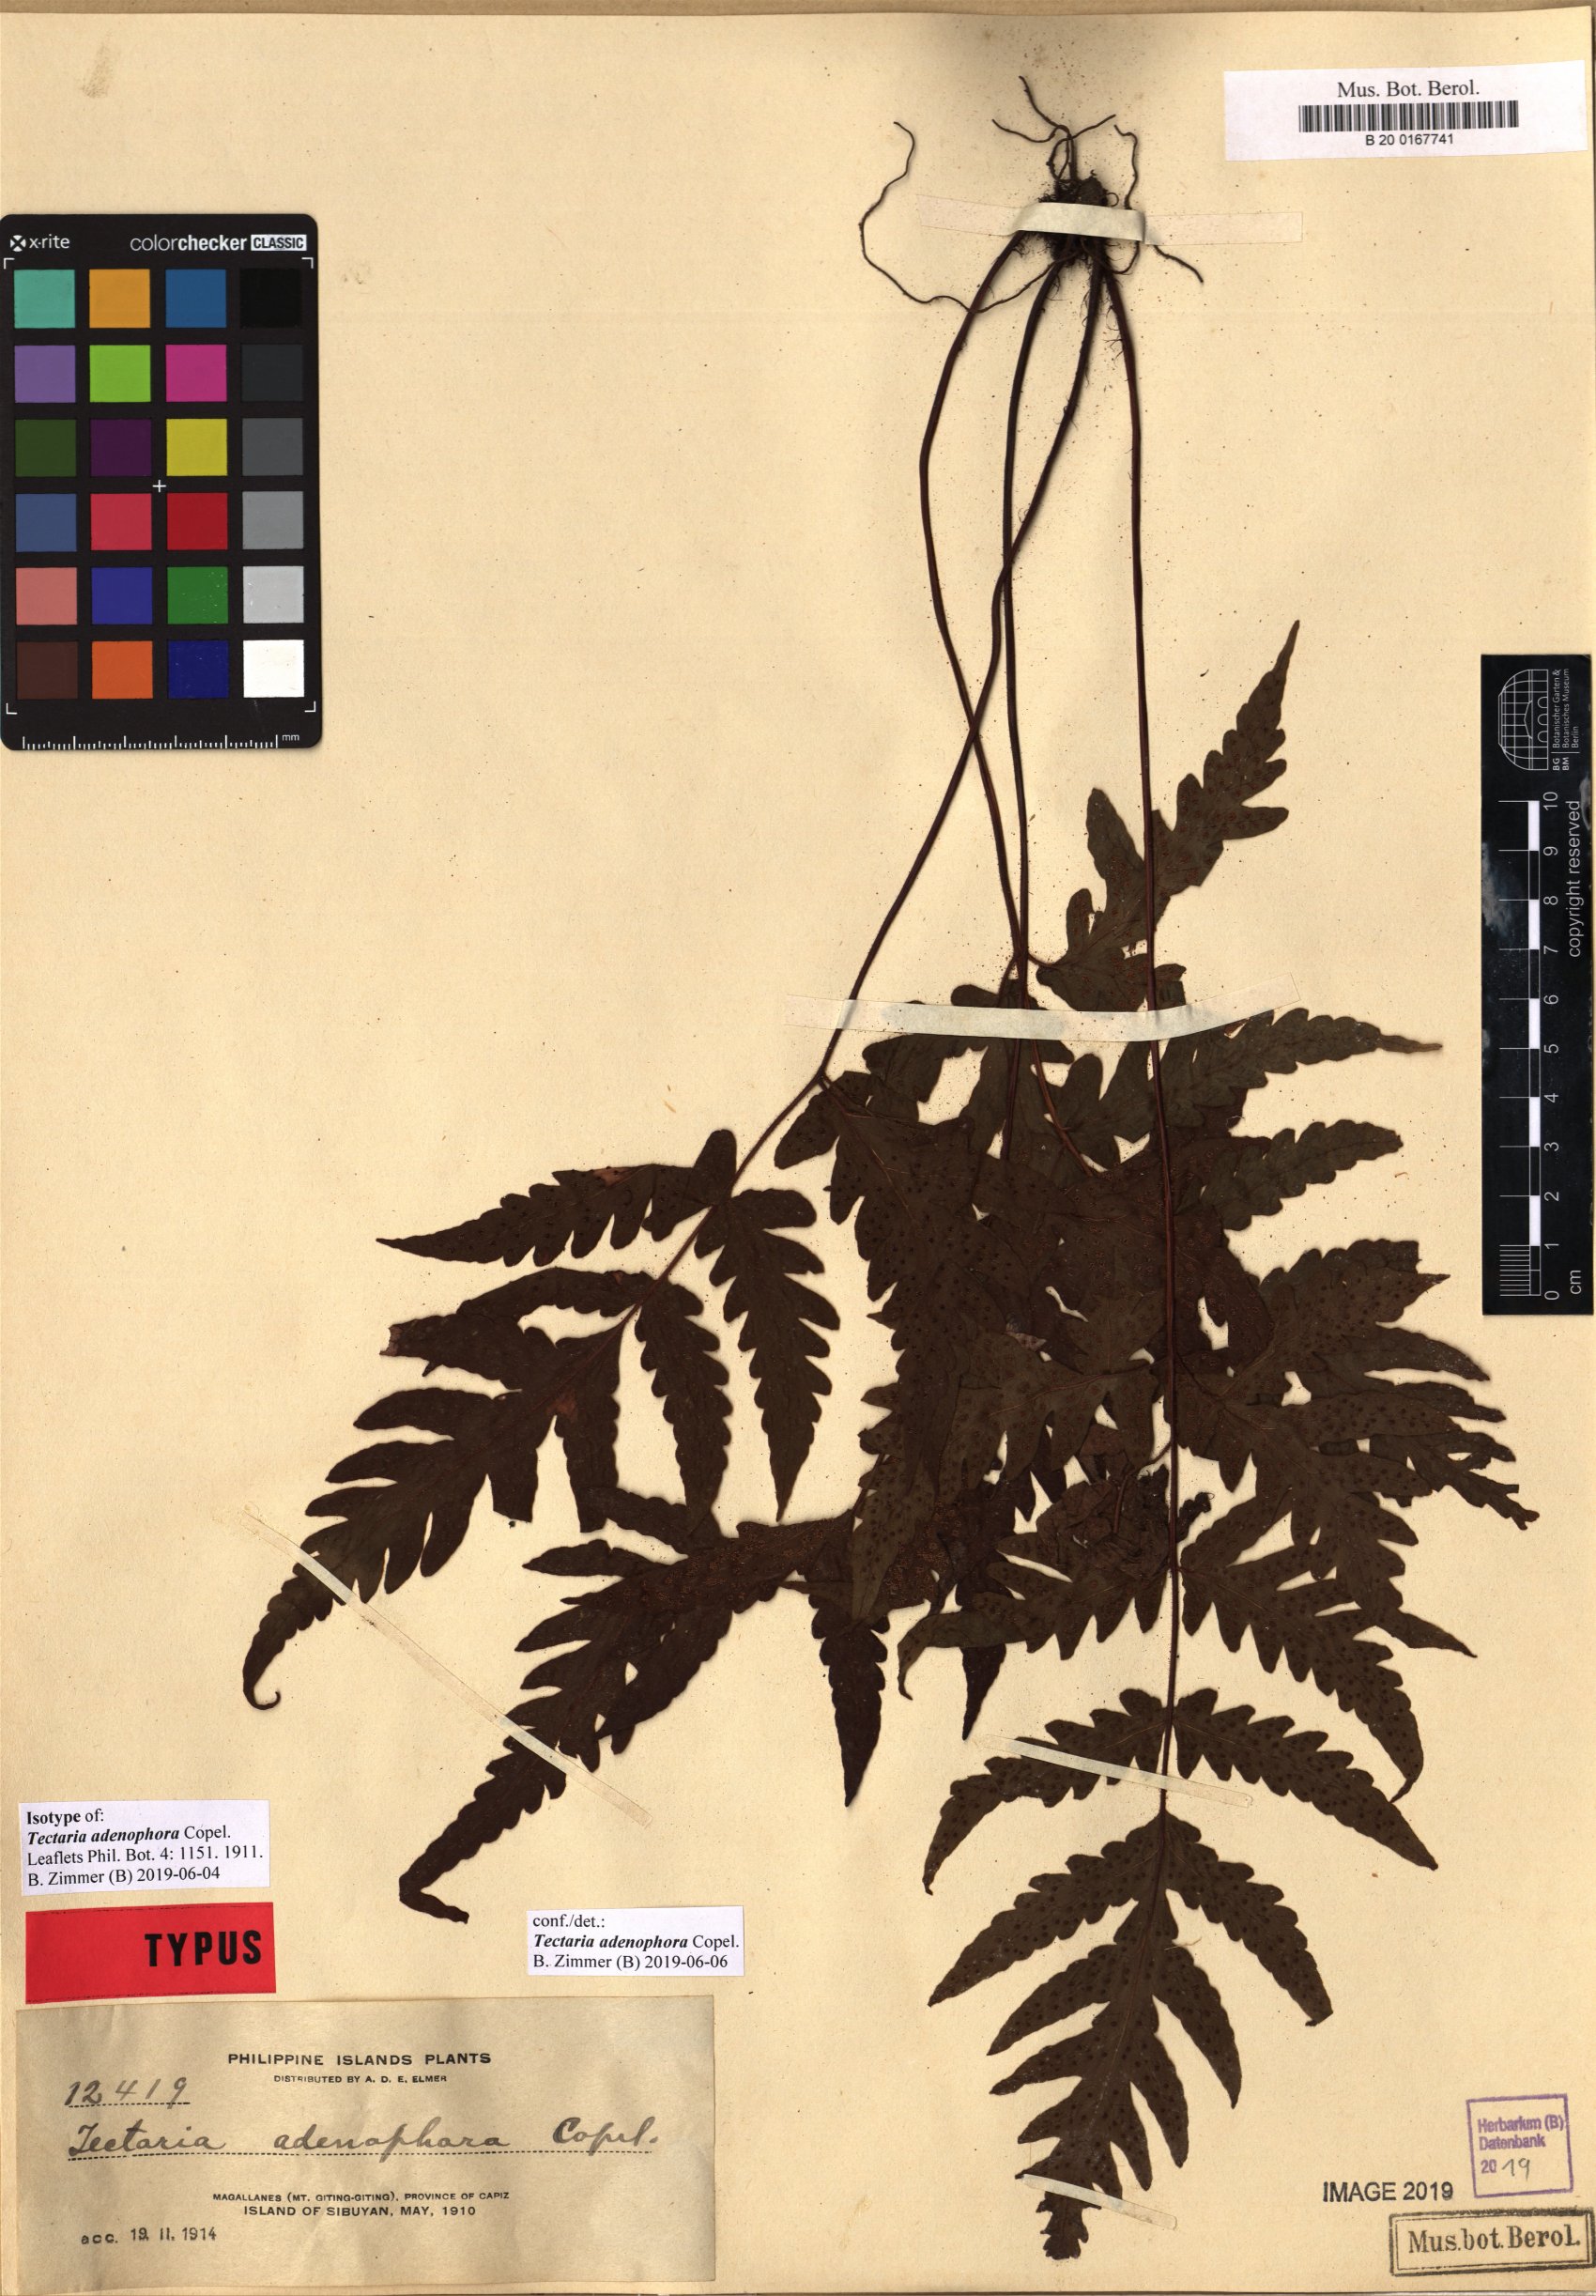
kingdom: Plantae
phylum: Tracheophyta
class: Polypodiopsida
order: Polypodiales
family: Tectariaceae
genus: Tectaria
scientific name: Tectaria adenophora
